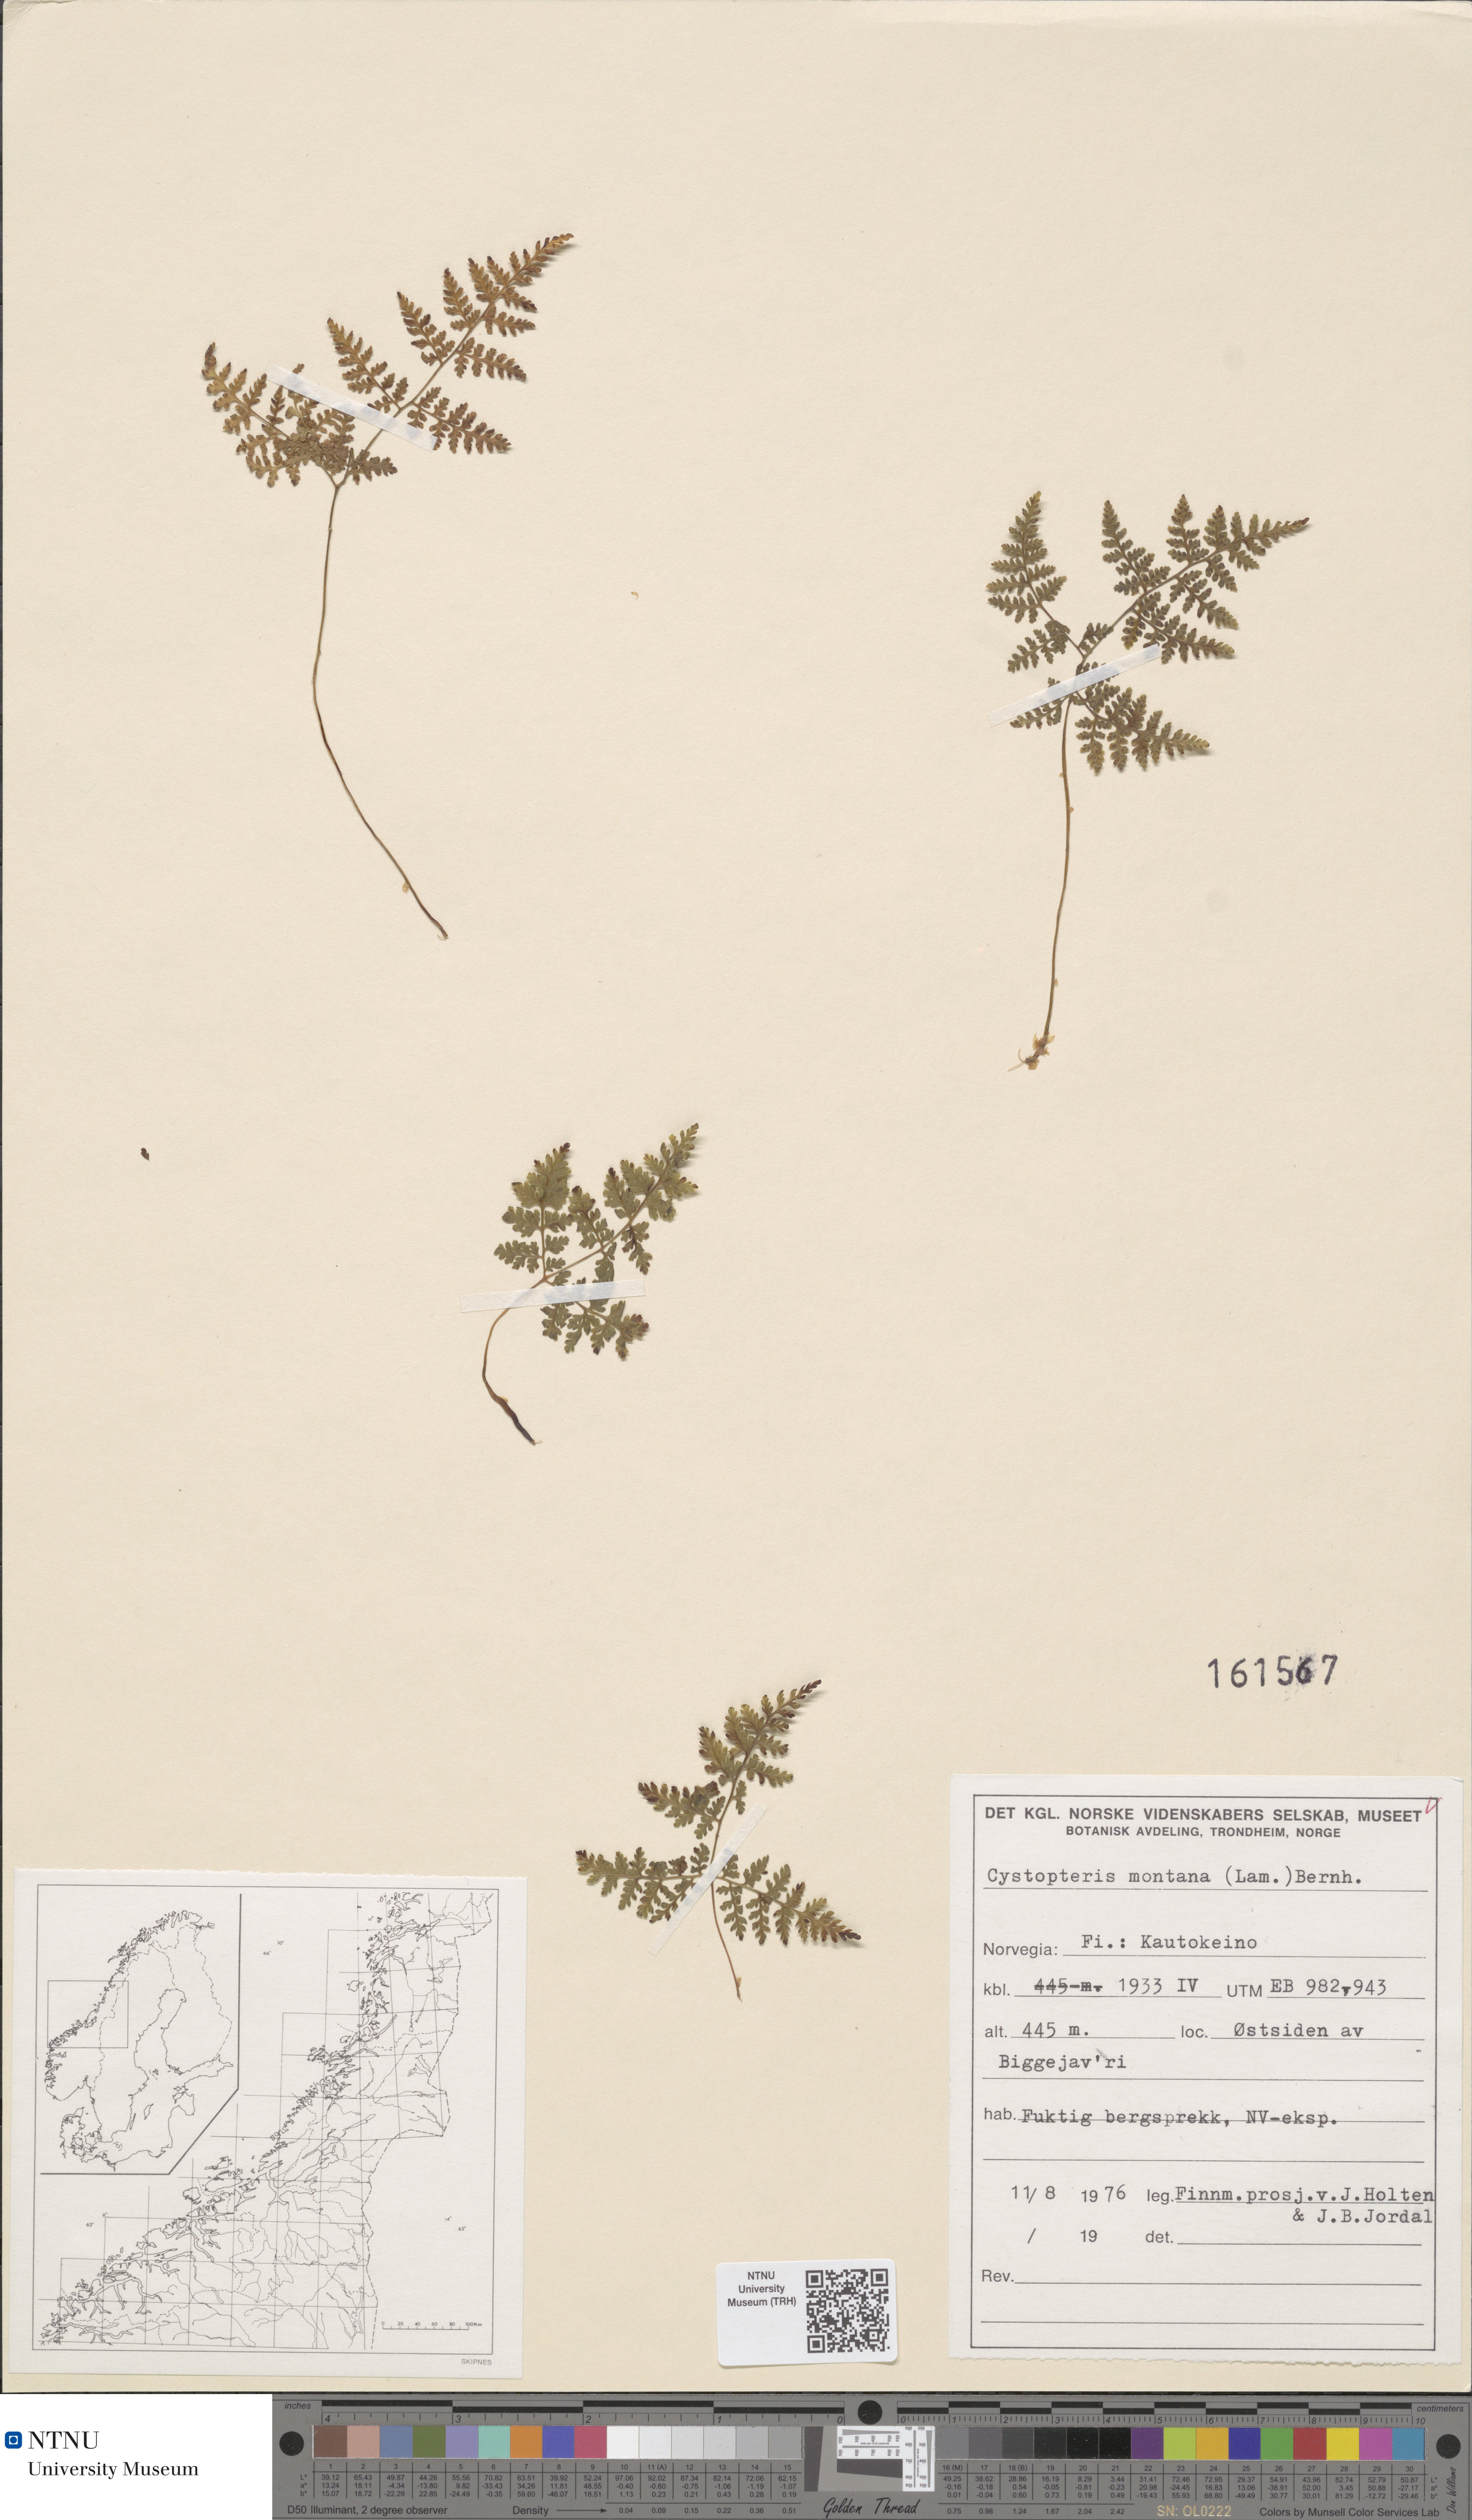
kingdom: Plantae
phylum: Tracheophyta
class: Polypodiopsida
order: Polypodiales
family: Cystopteridaceae
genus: Cystopteris
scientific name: Cystopteris montana
